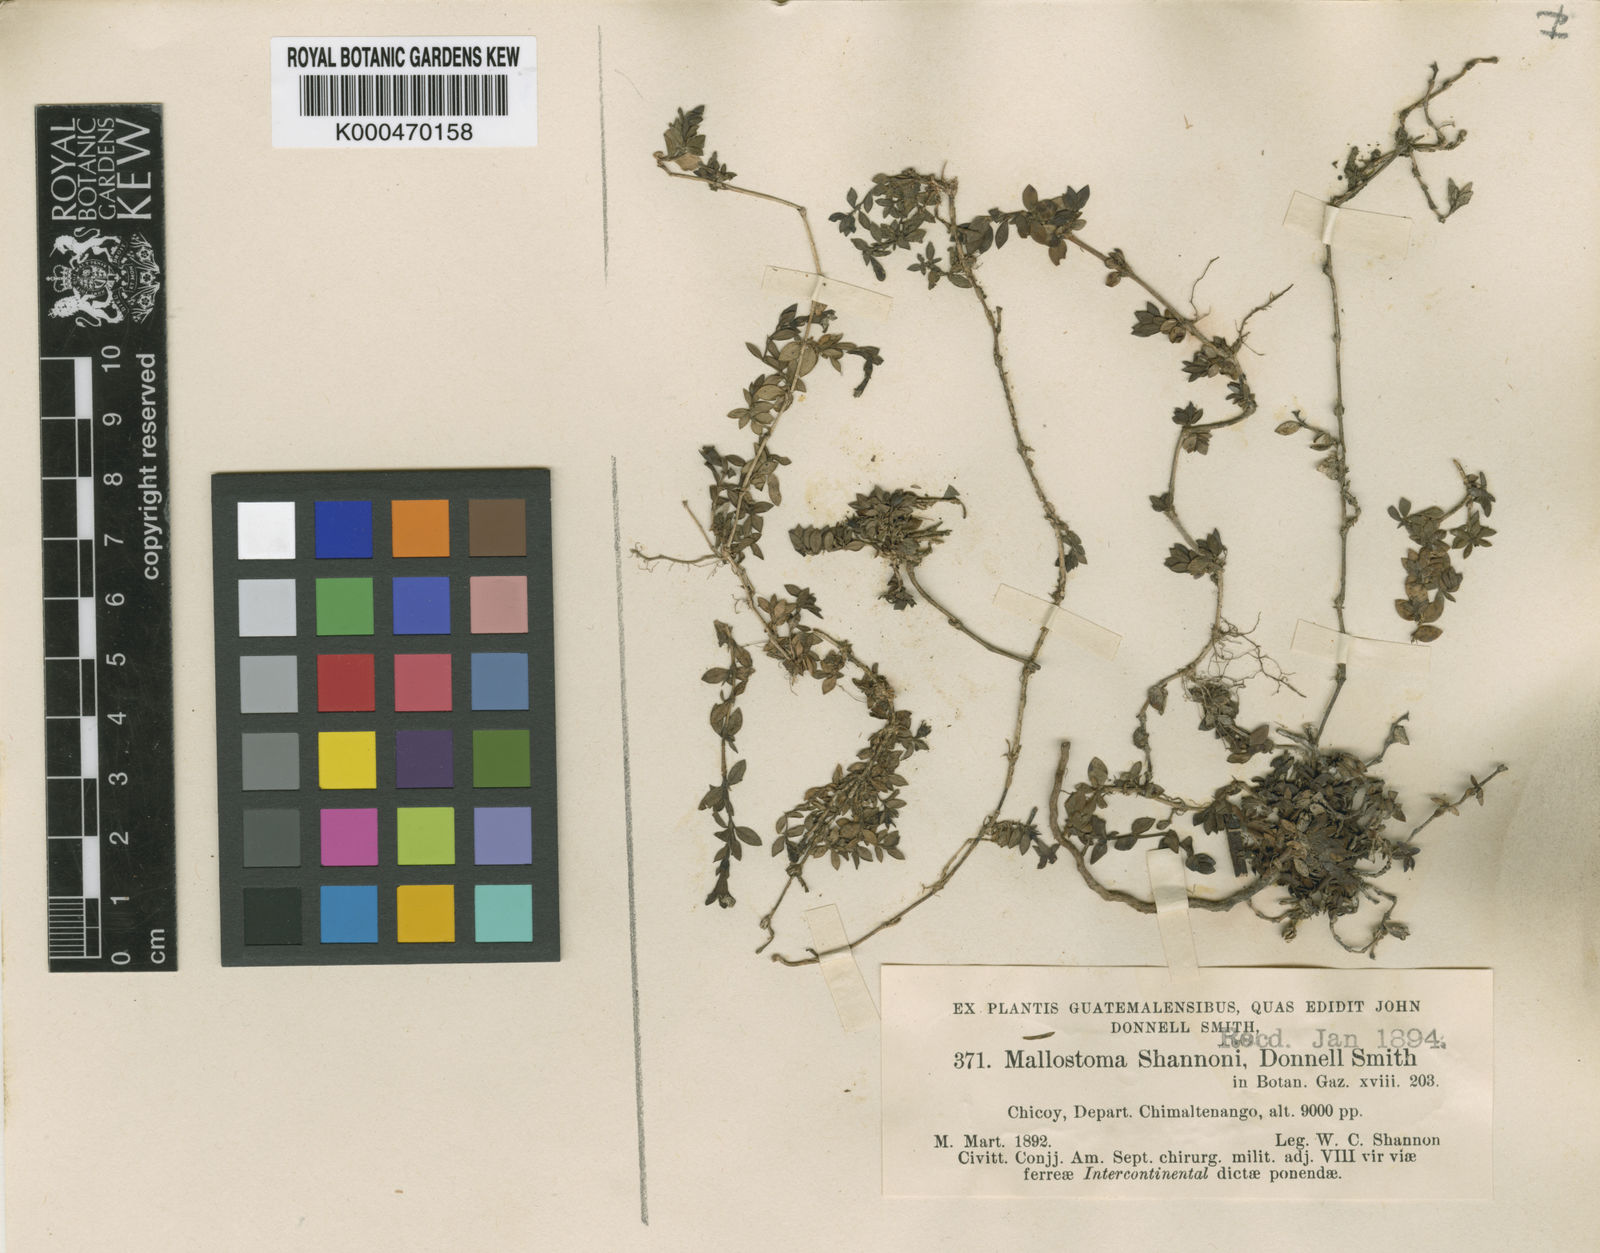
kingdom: Plantae
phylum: Tracheophyta
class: Magnoliopsida
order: Gentianales
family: Rubiaceae
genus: Arcytophyllum
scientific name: Arcytophyllum serpyllaceum
